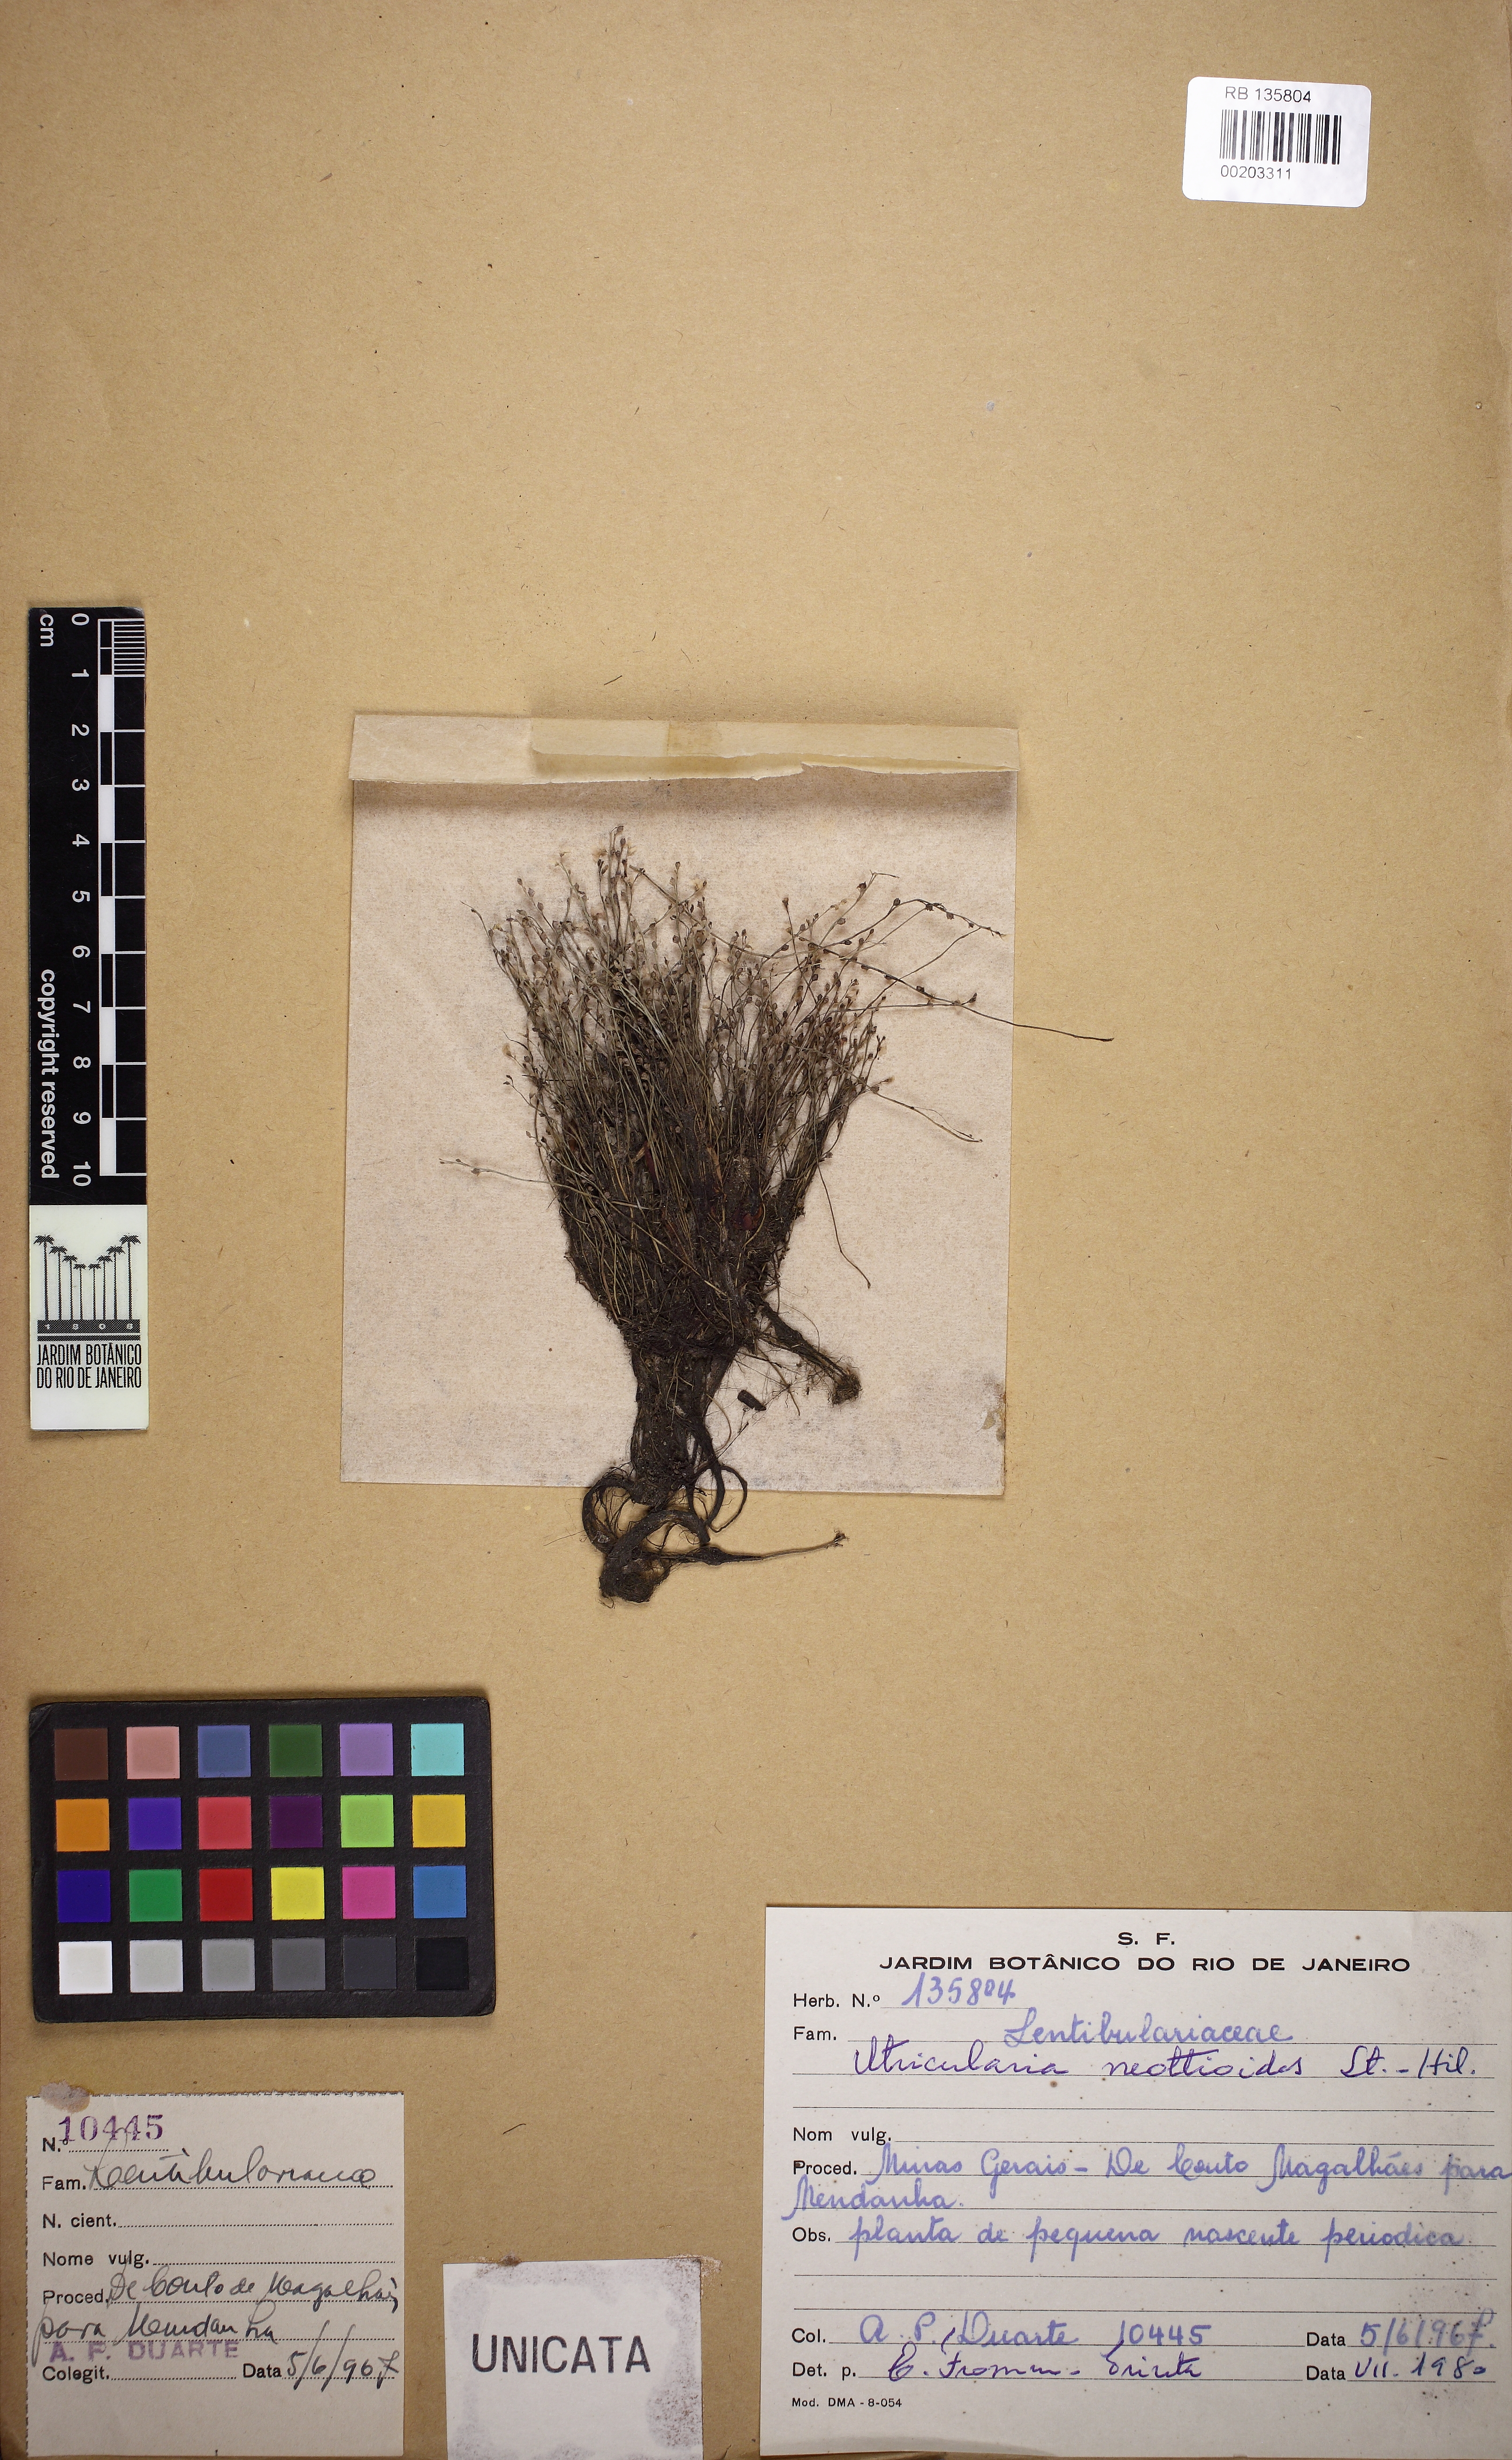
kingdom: Plantae
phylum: Tracheophyta
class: Magnoliopsida
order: Lamiales
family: Lentibulariaceae
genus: Utricularia
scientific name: Utricularia neottioides
